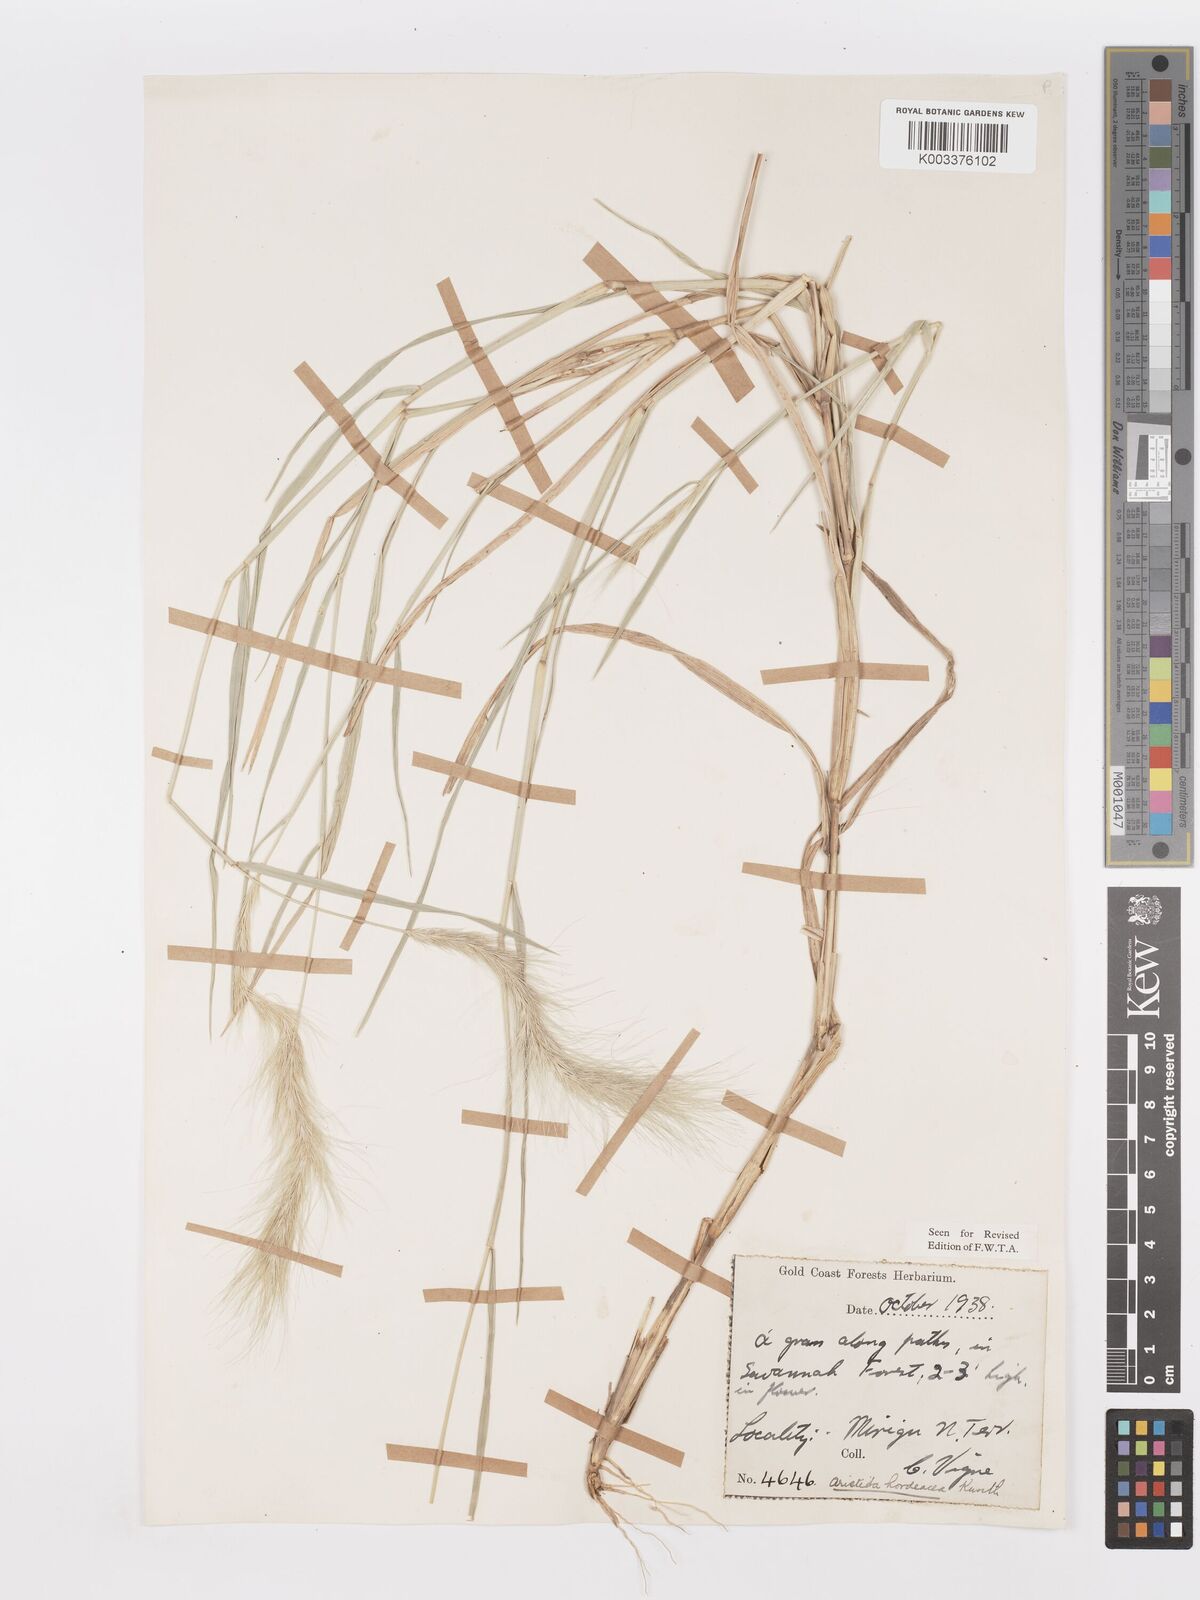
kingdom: Plantae
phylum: Tracheophyta
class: Liliopsida
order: Poales
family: Poaceae
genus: Aristida
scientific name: Aristida hordeacea
